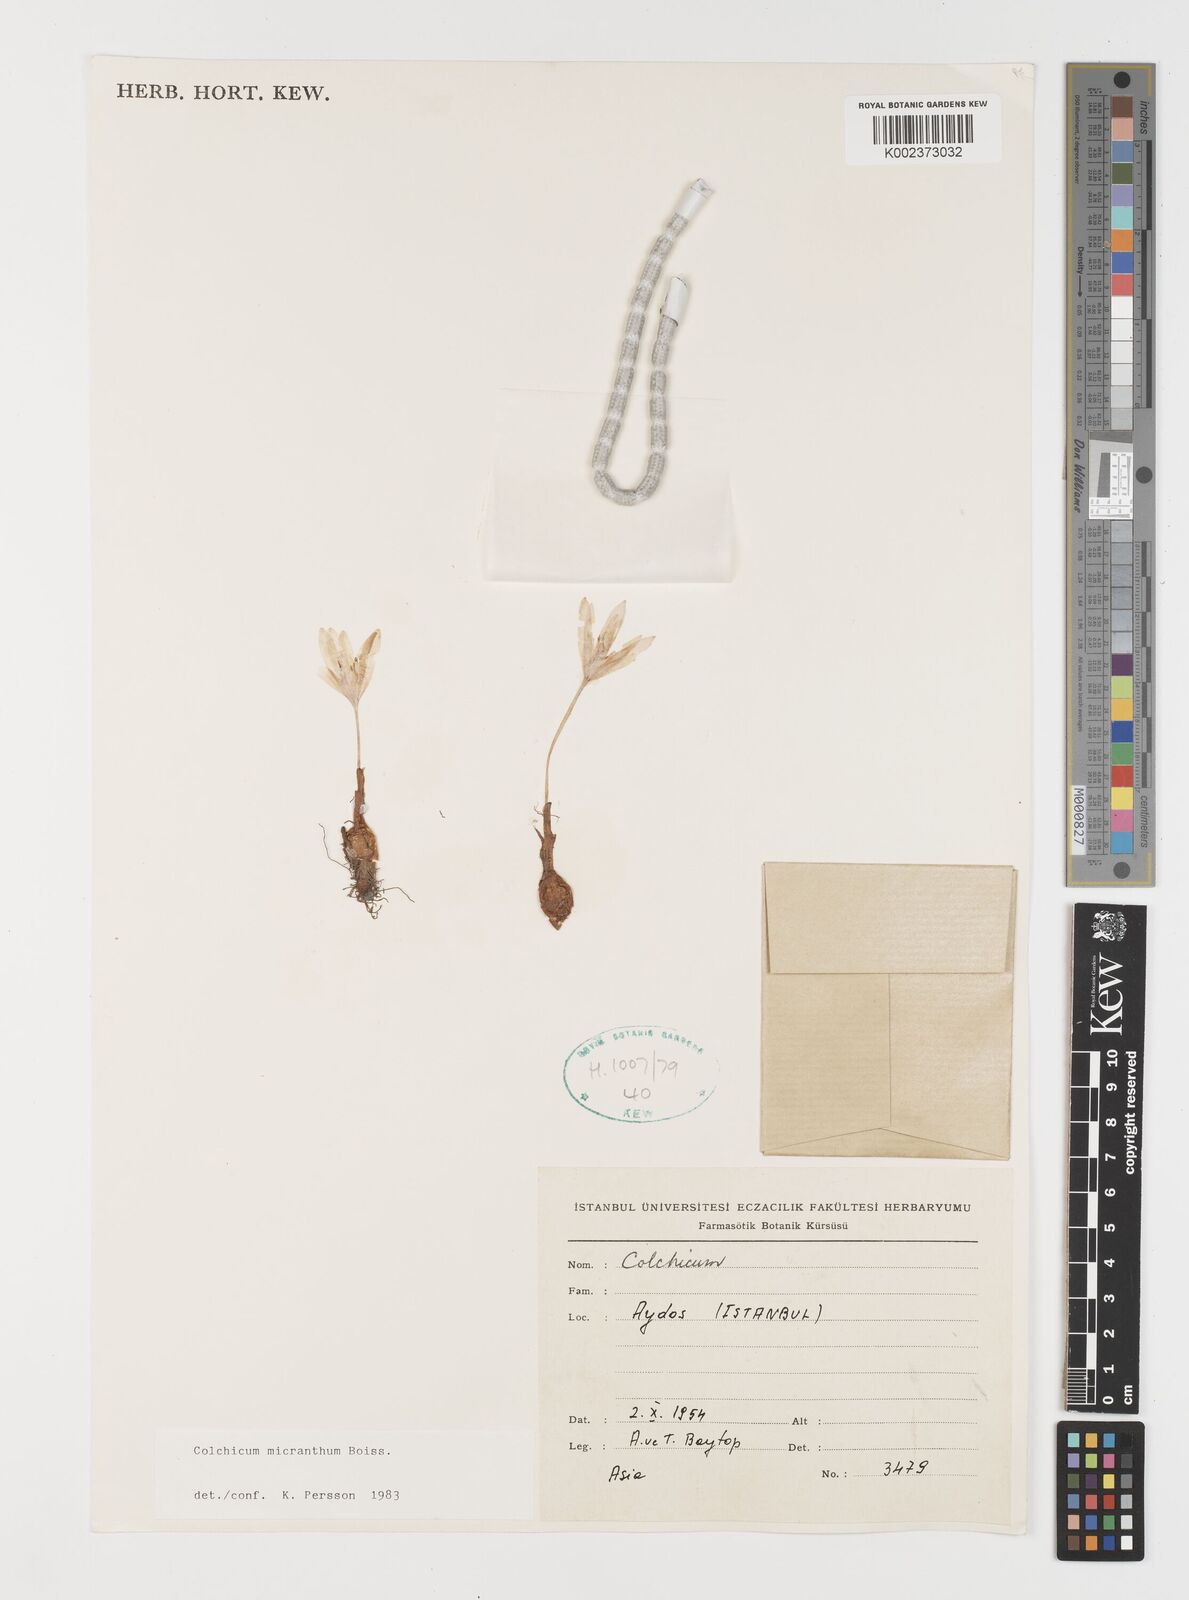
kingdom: Plantae
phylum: Tracheophyta
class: Liliopsida
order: Liliales
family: Colchicaceae
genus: Colchicum
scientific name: Colchicum micranthum
